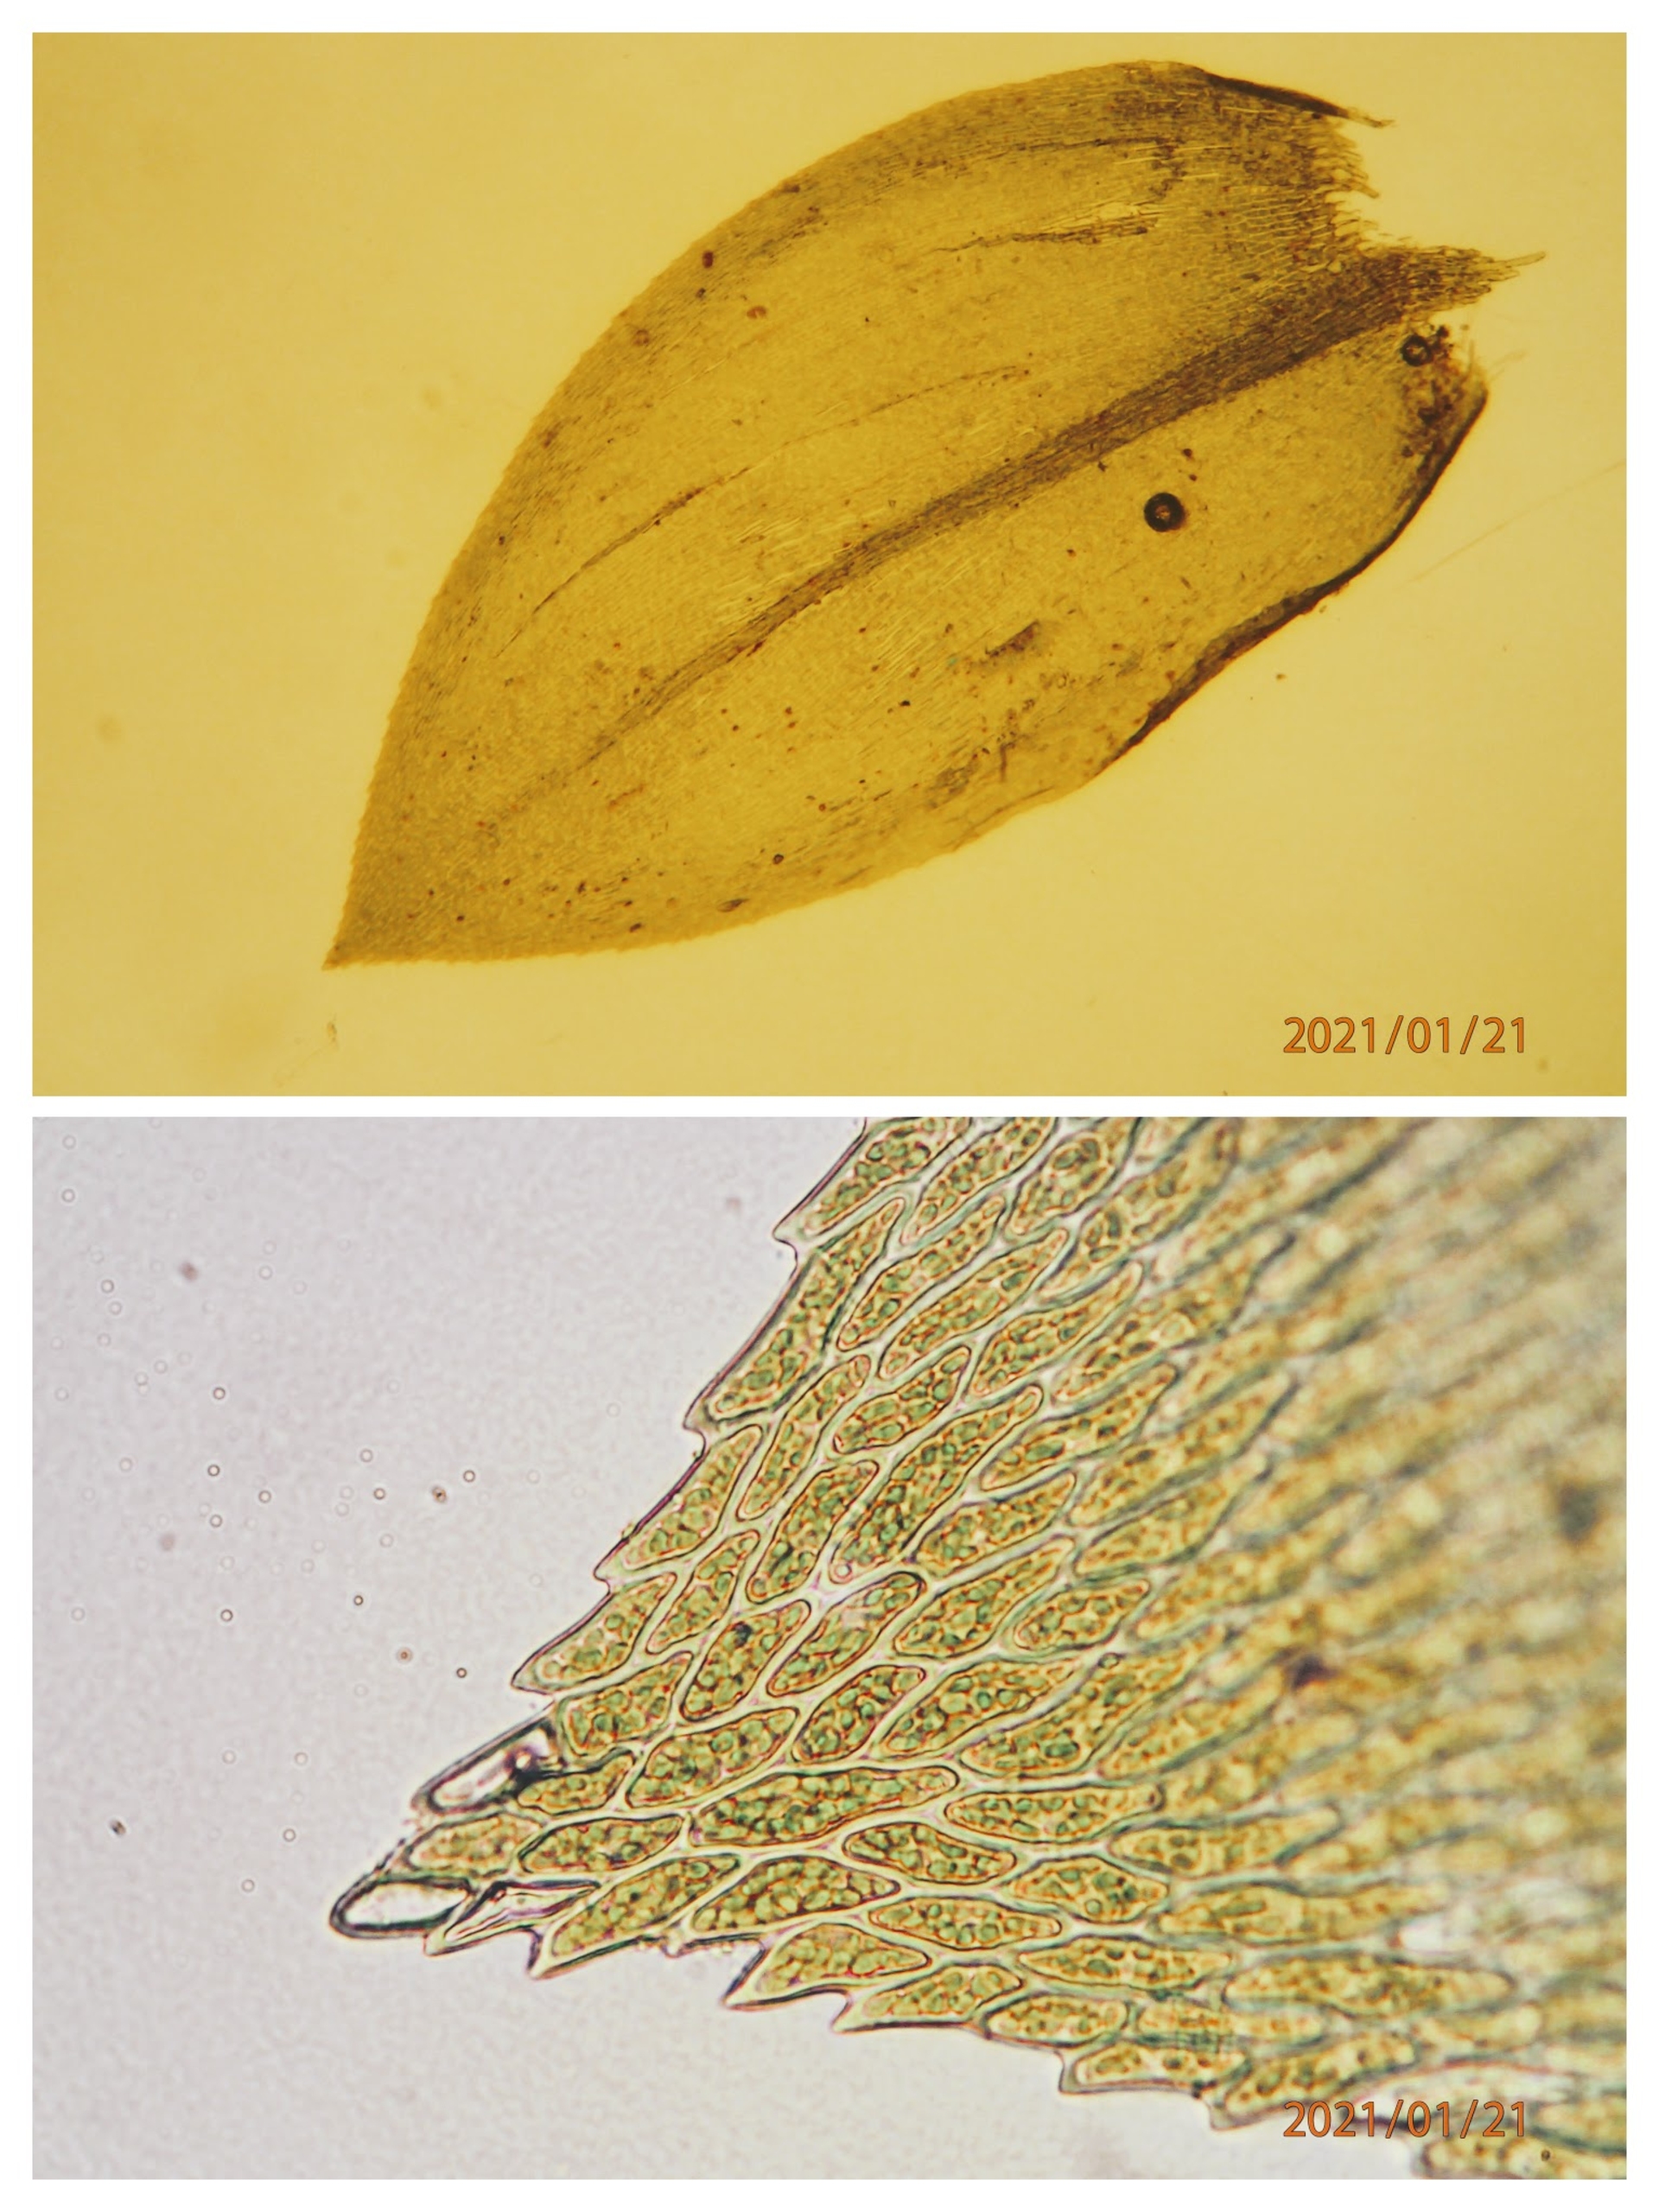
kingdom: Plantae
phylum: Bryophyta
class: Bryopsida
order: Hypnales
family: Brachytheciaceae
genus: Rhynchostegium
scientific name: Rhynchostegium riparioides
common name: Robust strømmos
